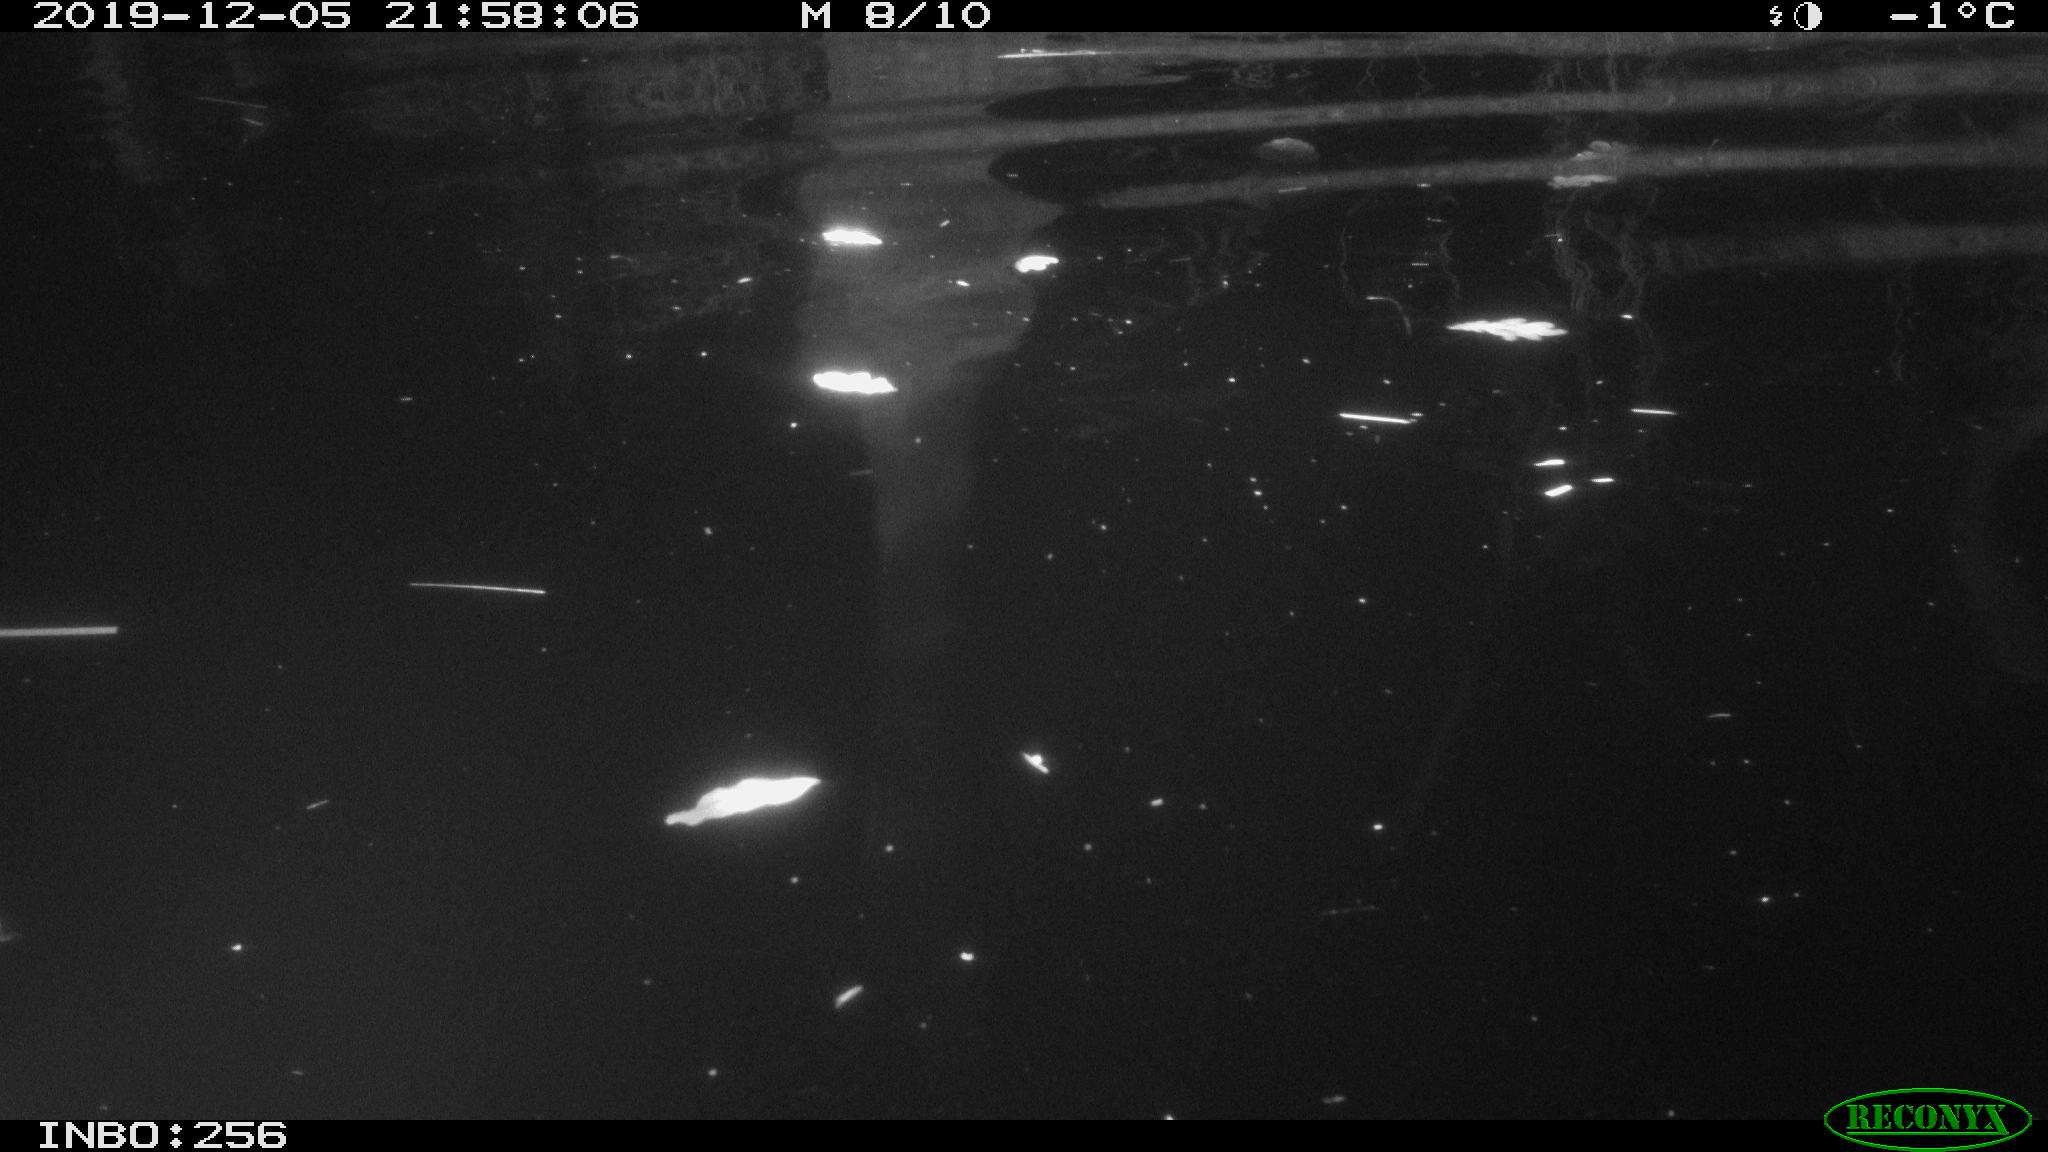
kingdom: Animalia
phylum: Chordata
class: Aves
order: Anseriformes
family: Anatidae
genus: Anas
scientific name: Anas platyrhynchos
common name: Mallard
